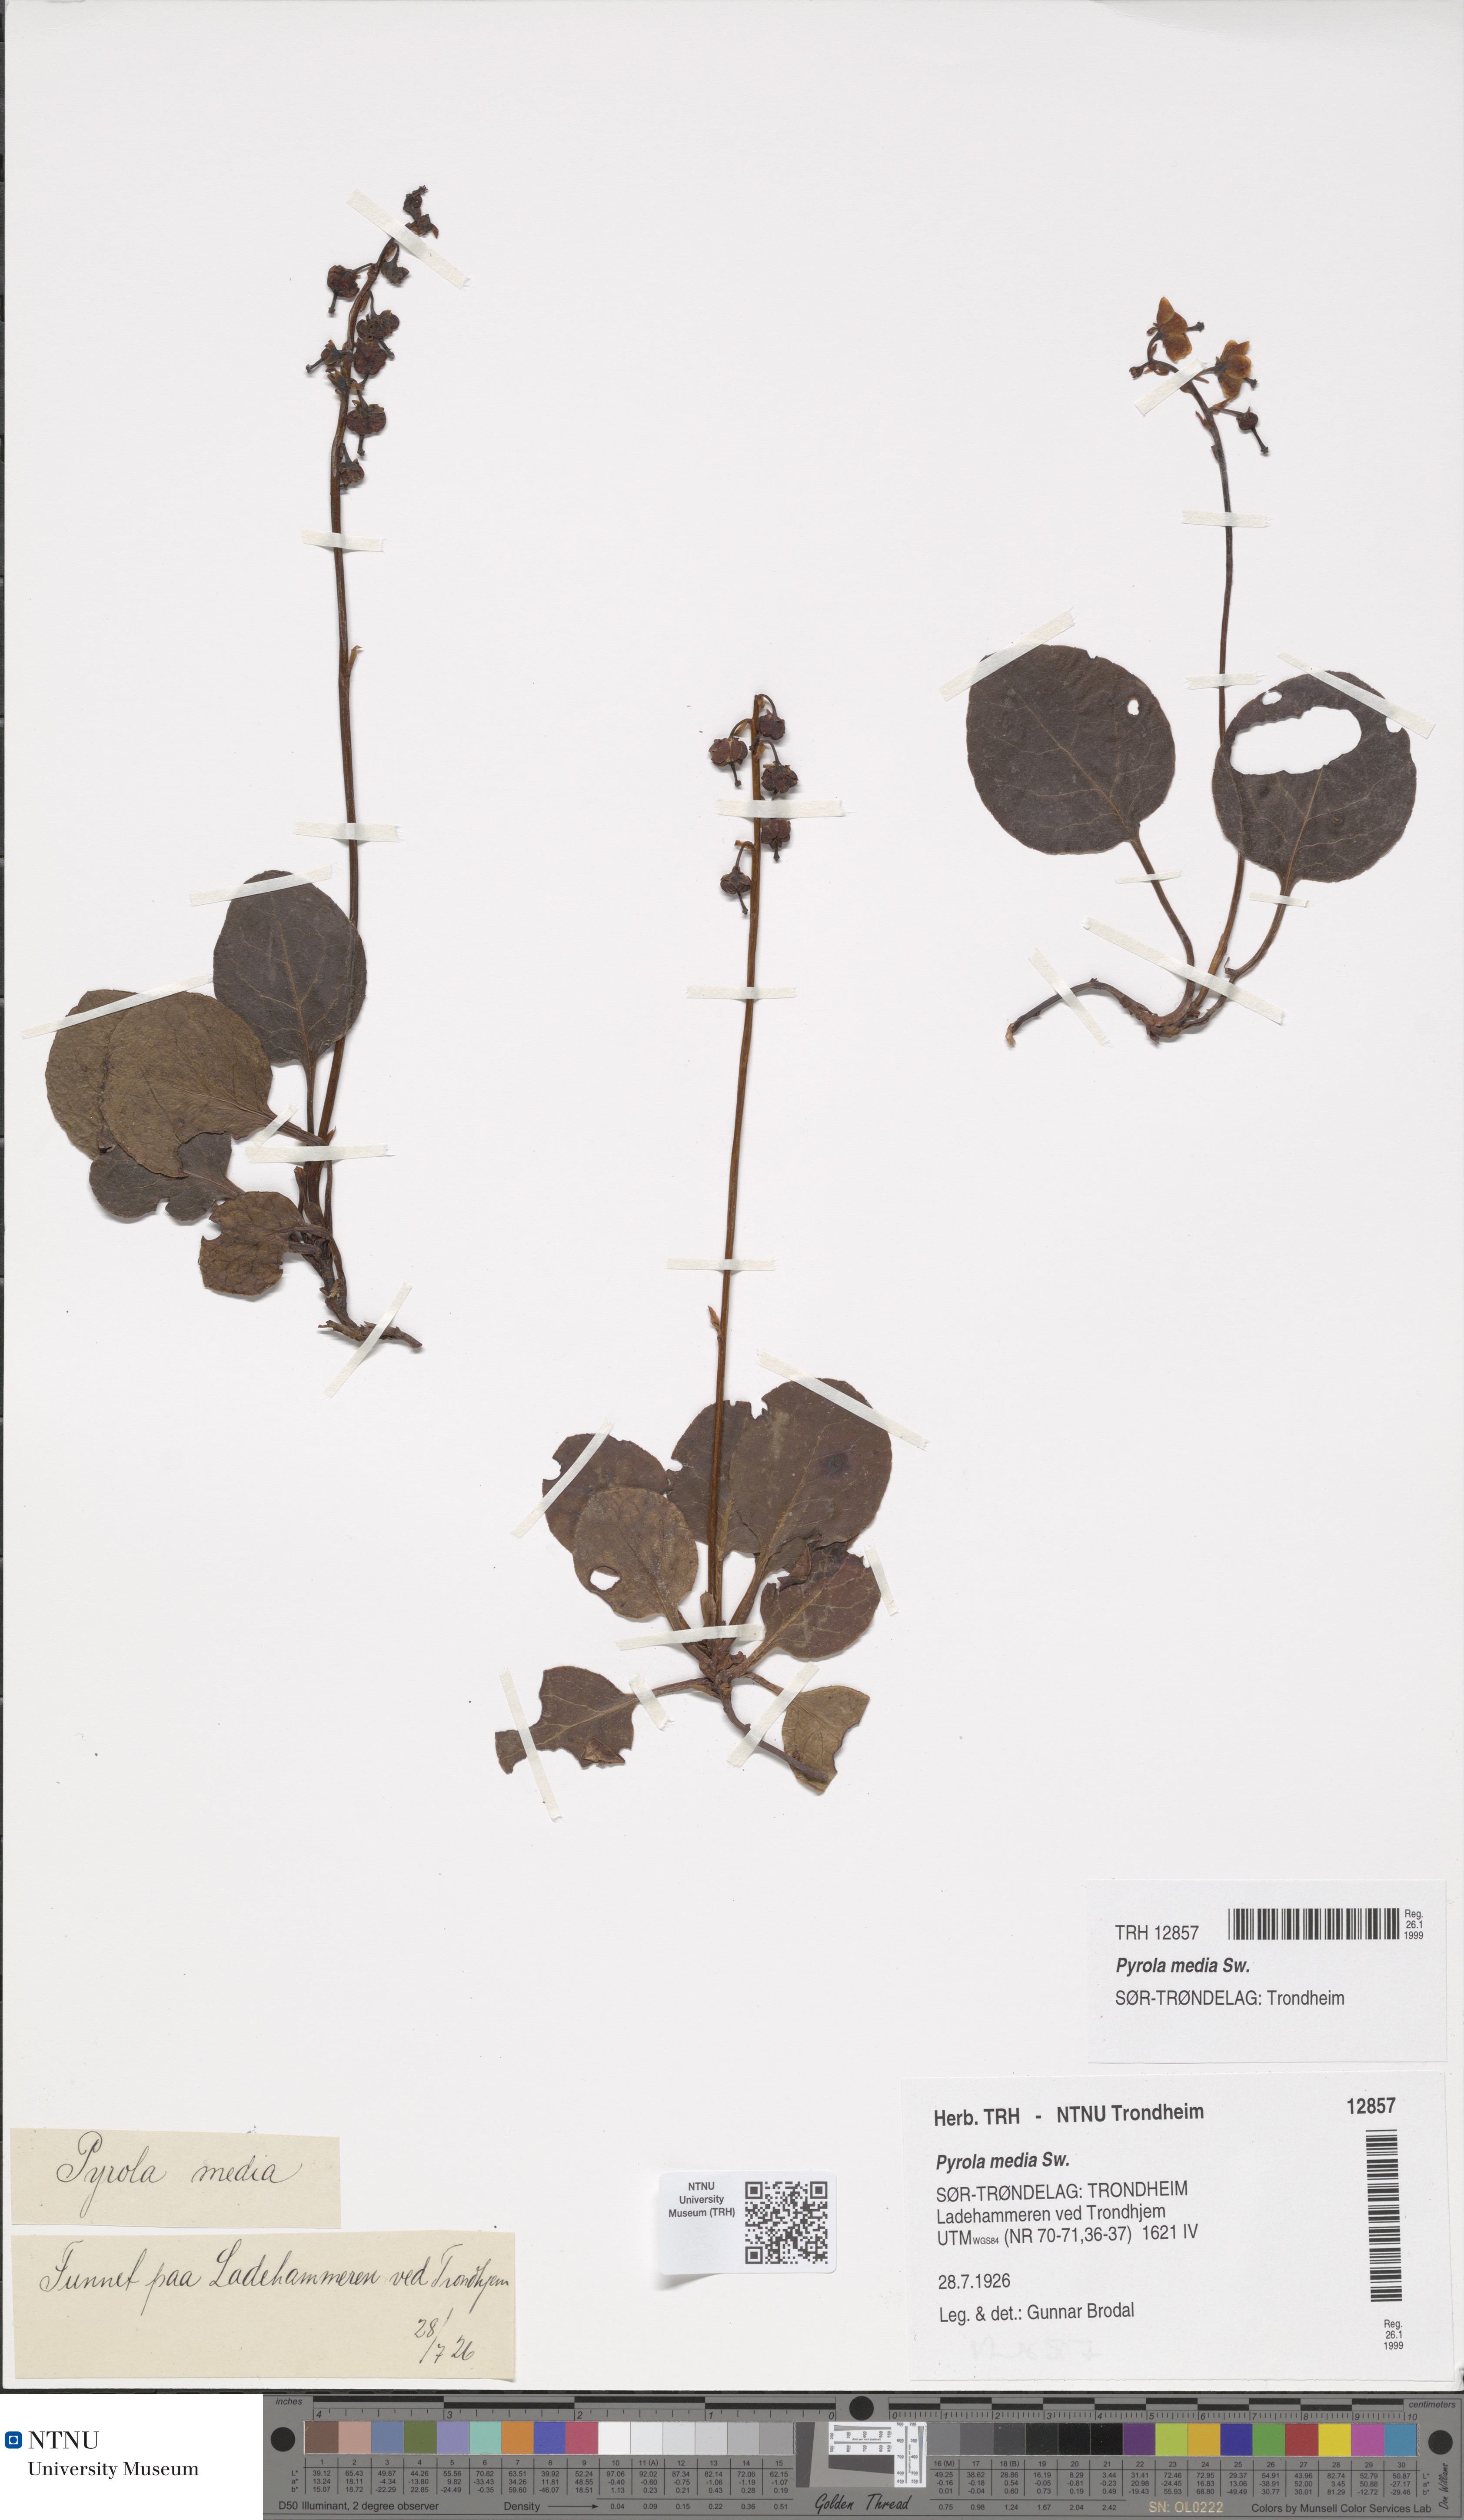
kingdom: Plantae
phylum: Tracheophyta
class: Magnoliopsida
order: Ericales
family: Ericaceae
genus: Pyrola
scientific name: Pyrola media
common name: Intermediate wintergreen
